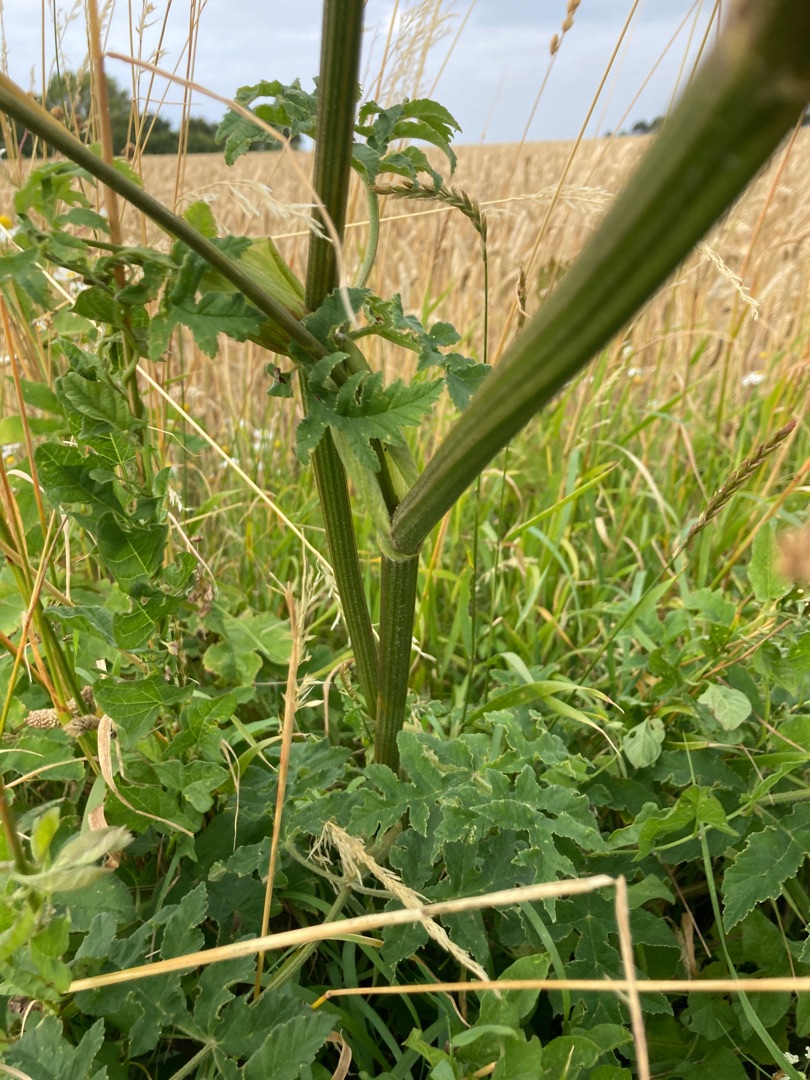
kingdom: Plantae
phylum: Tracheophyta
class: Magnoliopsida
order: Apiales
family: Apiaceae
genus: Heracleum
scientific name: Heracleum sphondylium
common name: Almindelig bjørneklo
